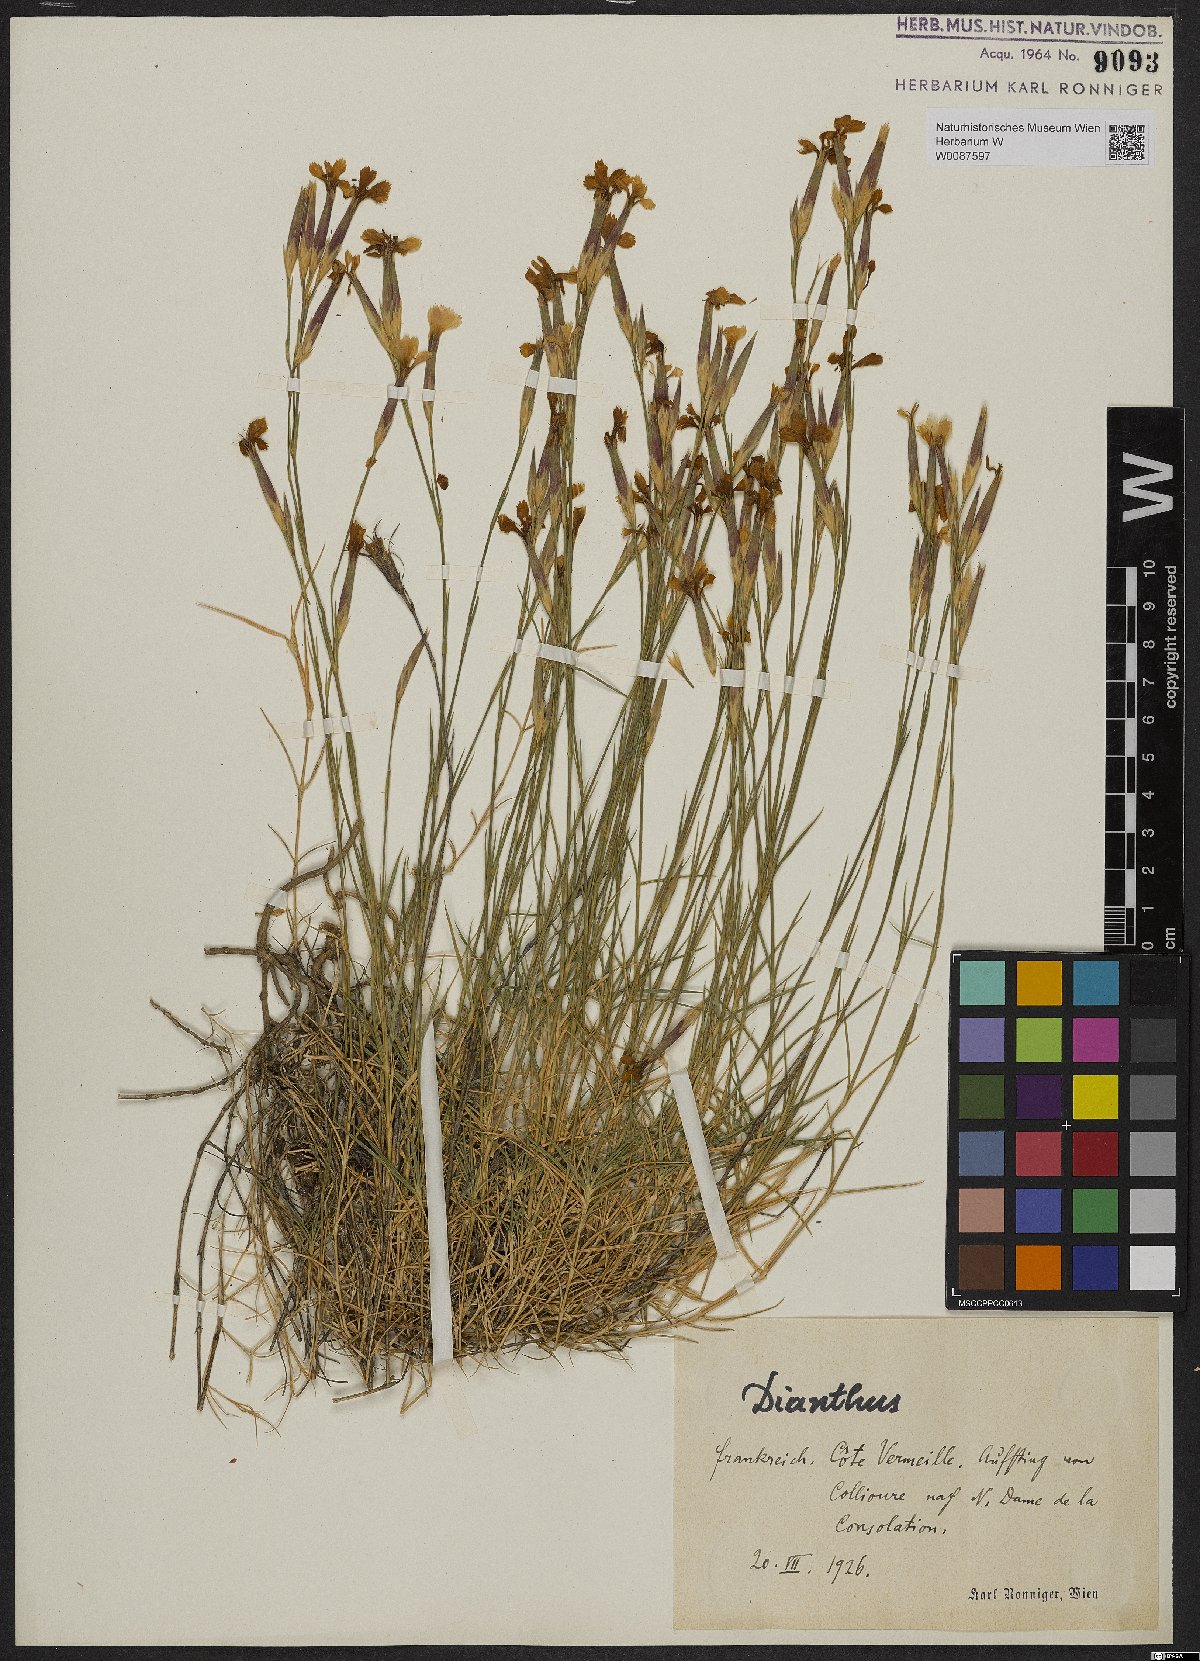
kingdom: Plantae
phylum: Tracheophyta
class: Magnoliopsida
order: Caryophyllales
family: Caryophyllaceae
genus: Dianthus
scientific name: Dianthus
